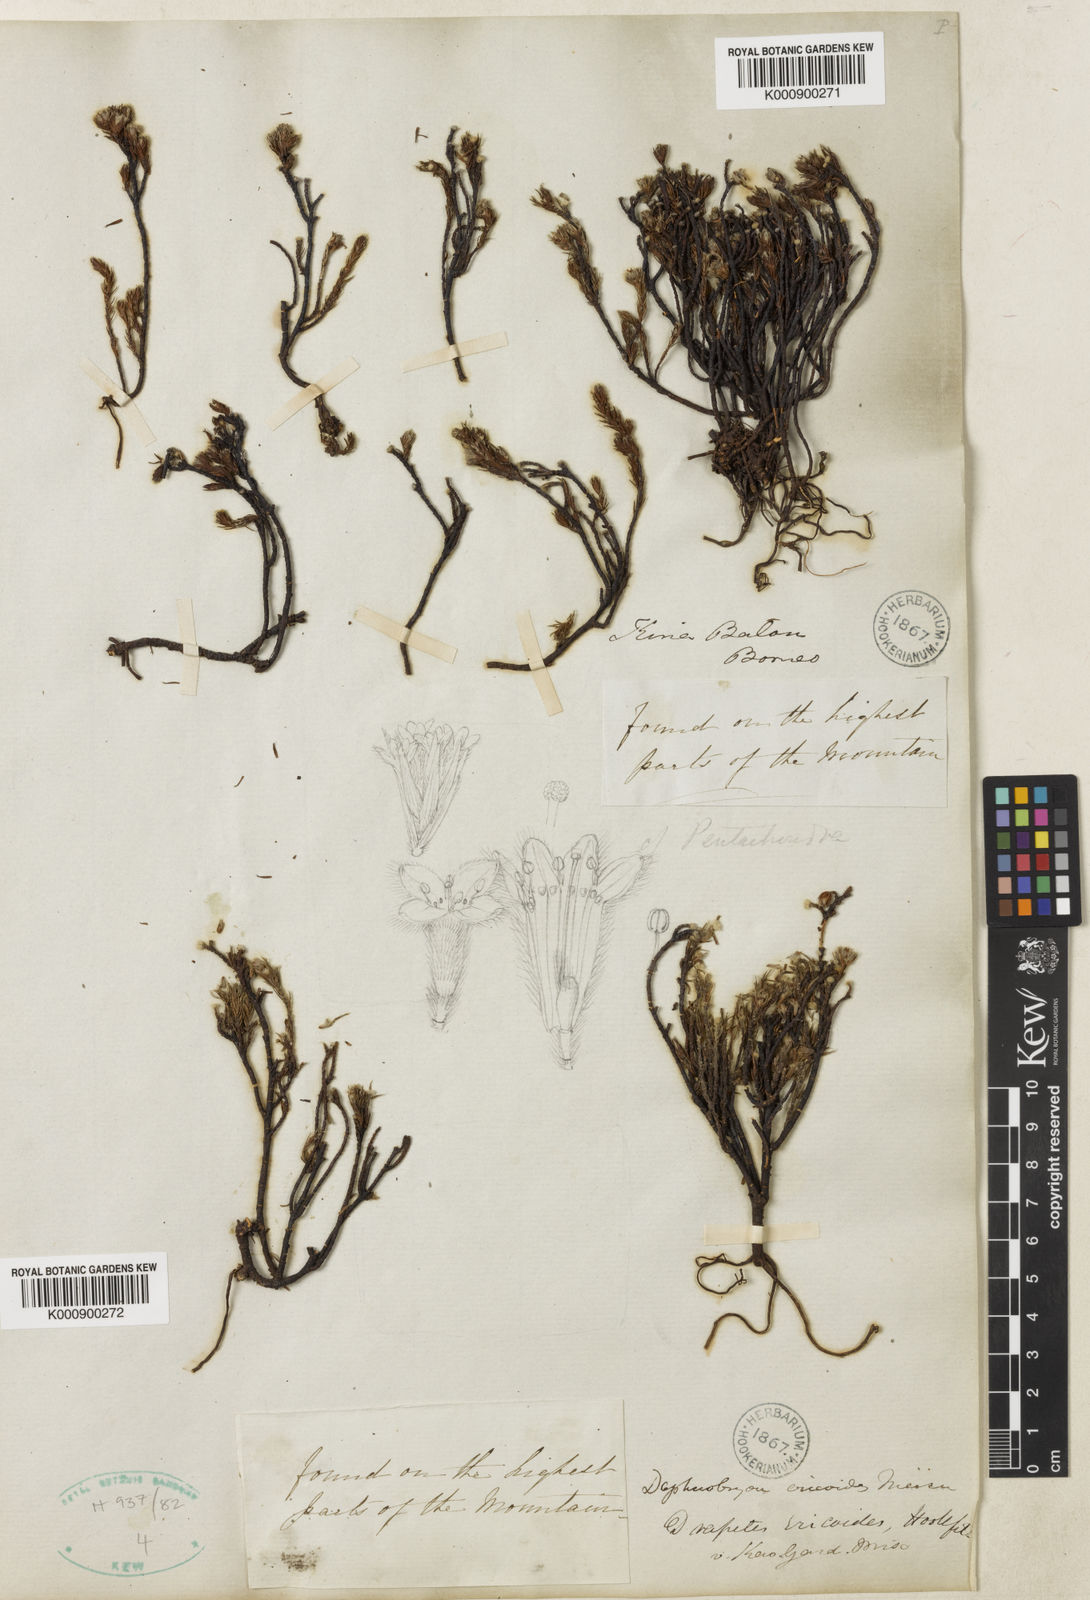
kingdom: Plantae
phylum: Tracheophyta
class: Magnoliopsida
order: Malvales
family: Thymelaeaceae
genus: Kelleria
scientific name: Kelleria ericoides
